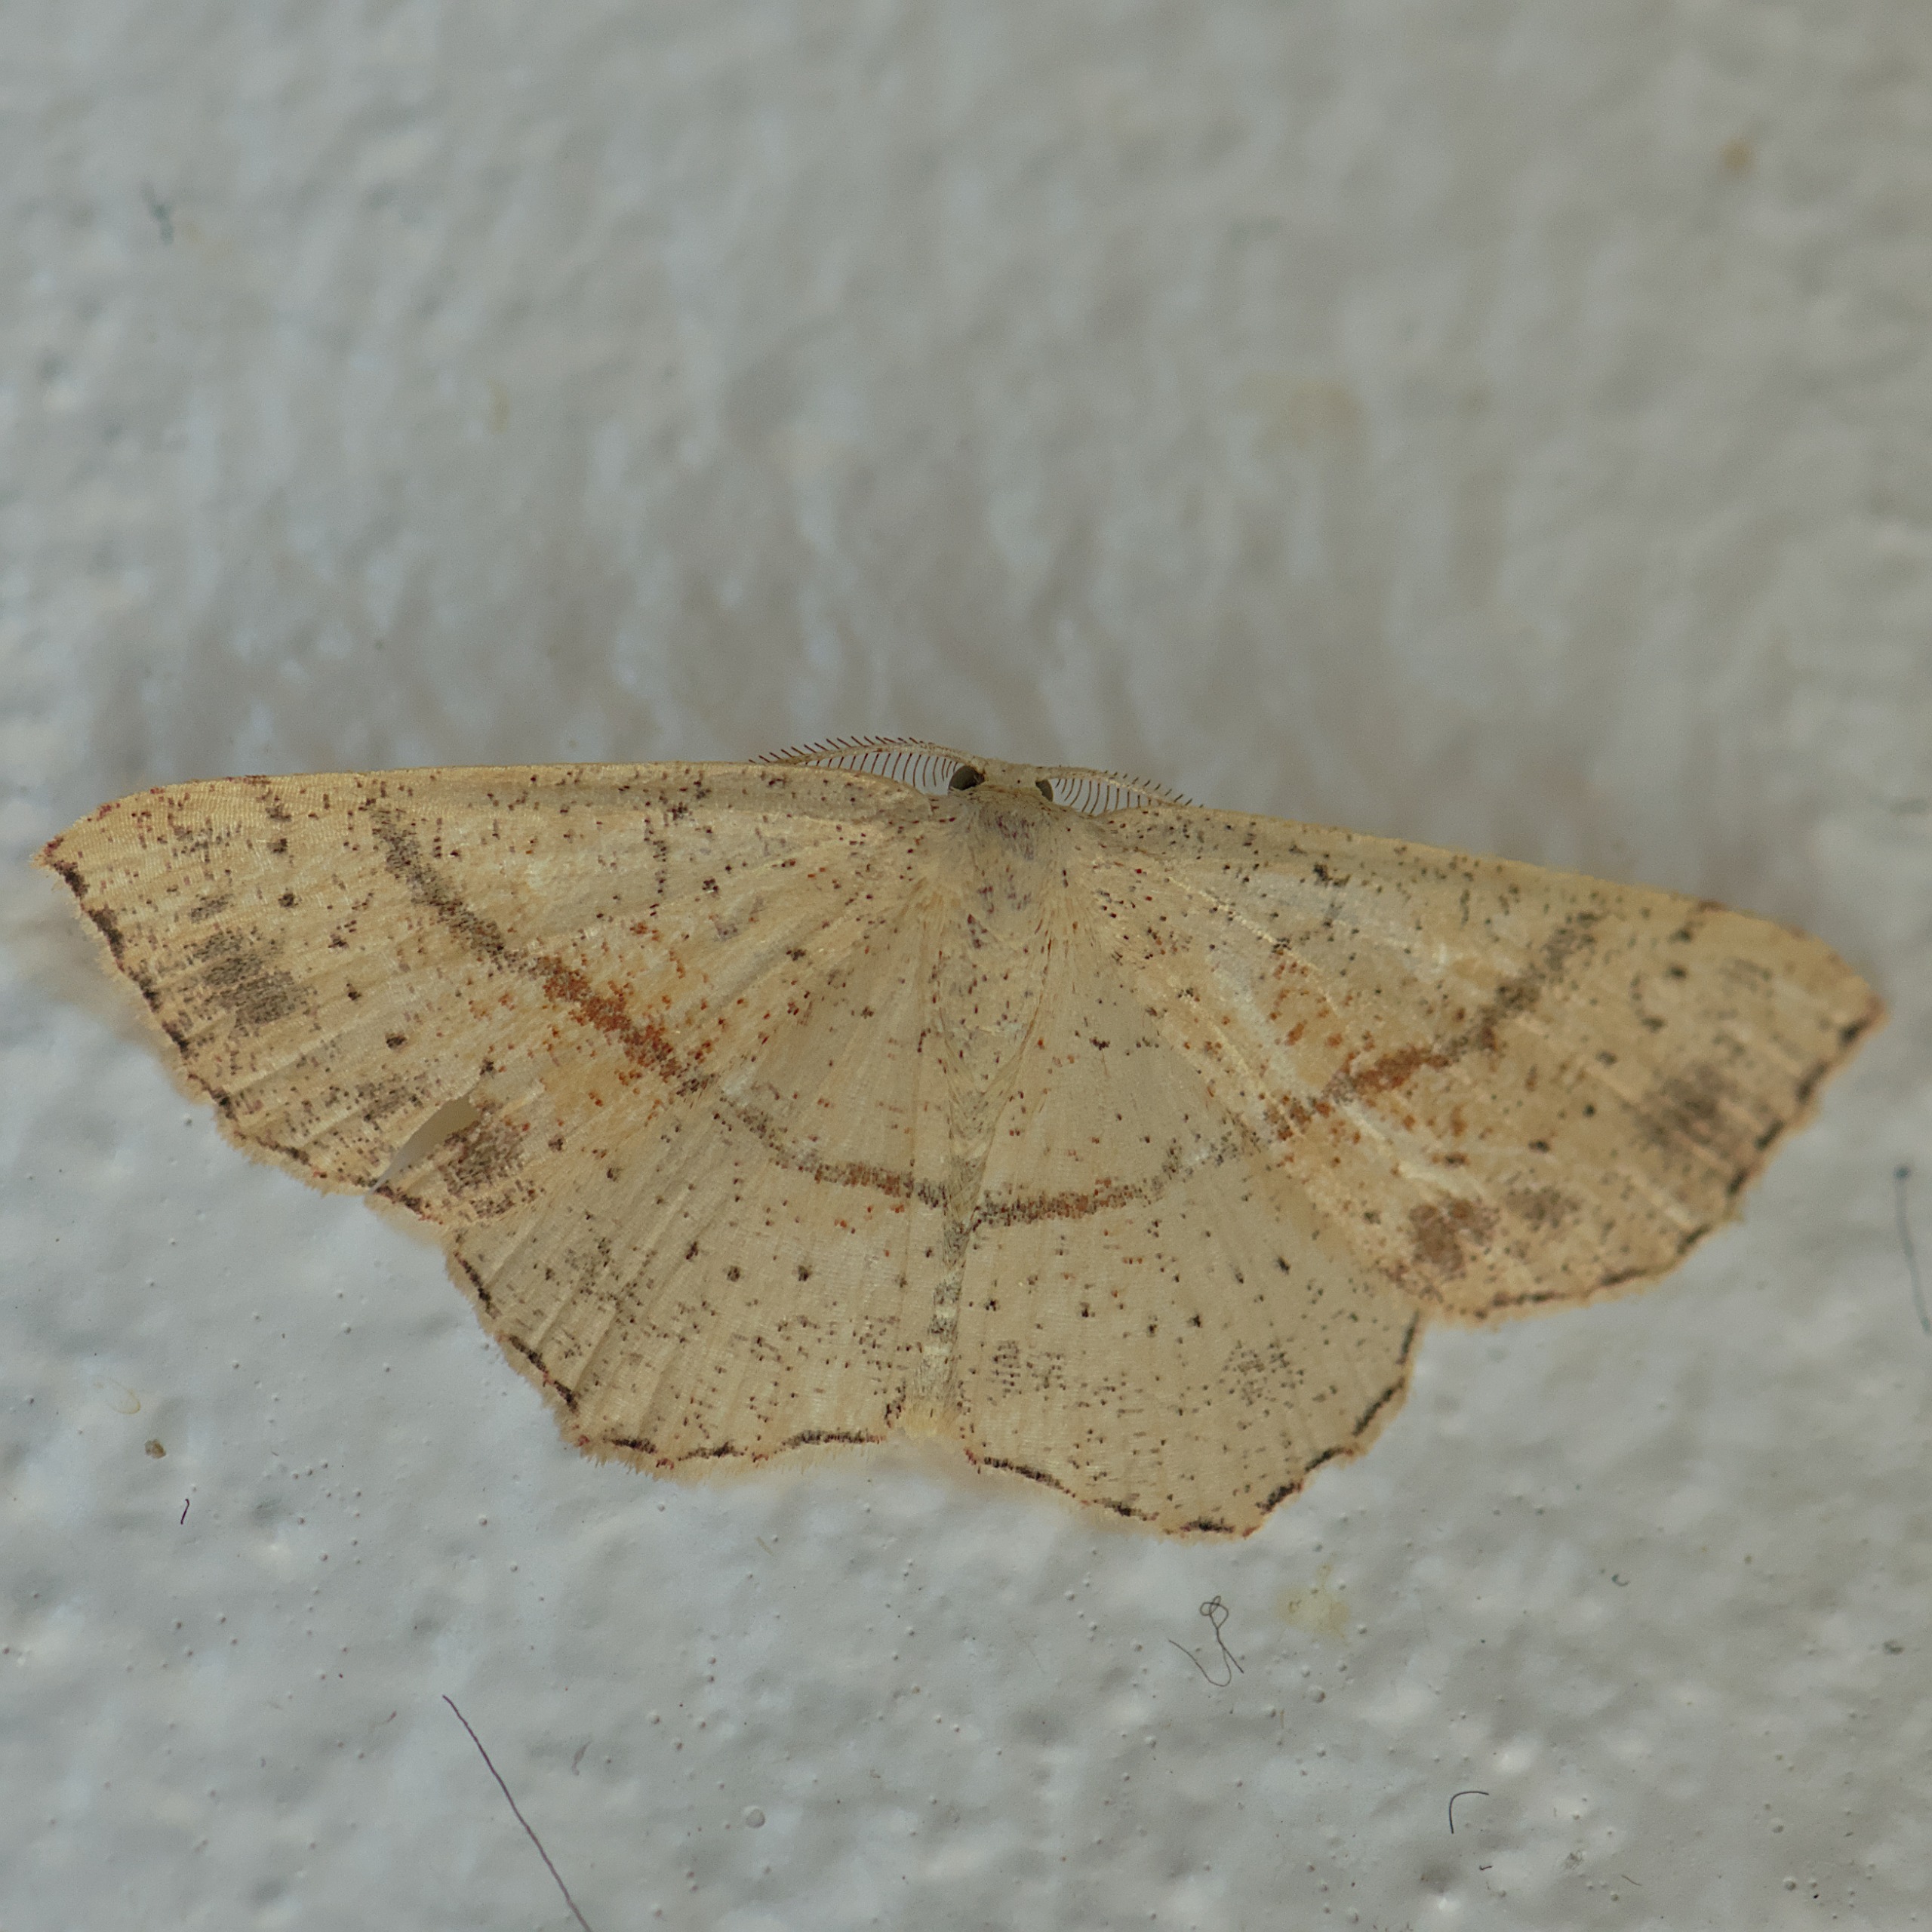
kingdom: Animalia
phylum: Arthropoda
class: Insecta
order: Lepidoptera
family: Geometridae
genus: Cyclophora
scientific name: Cyclophora punctaria
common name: Ege-bæltemåler
